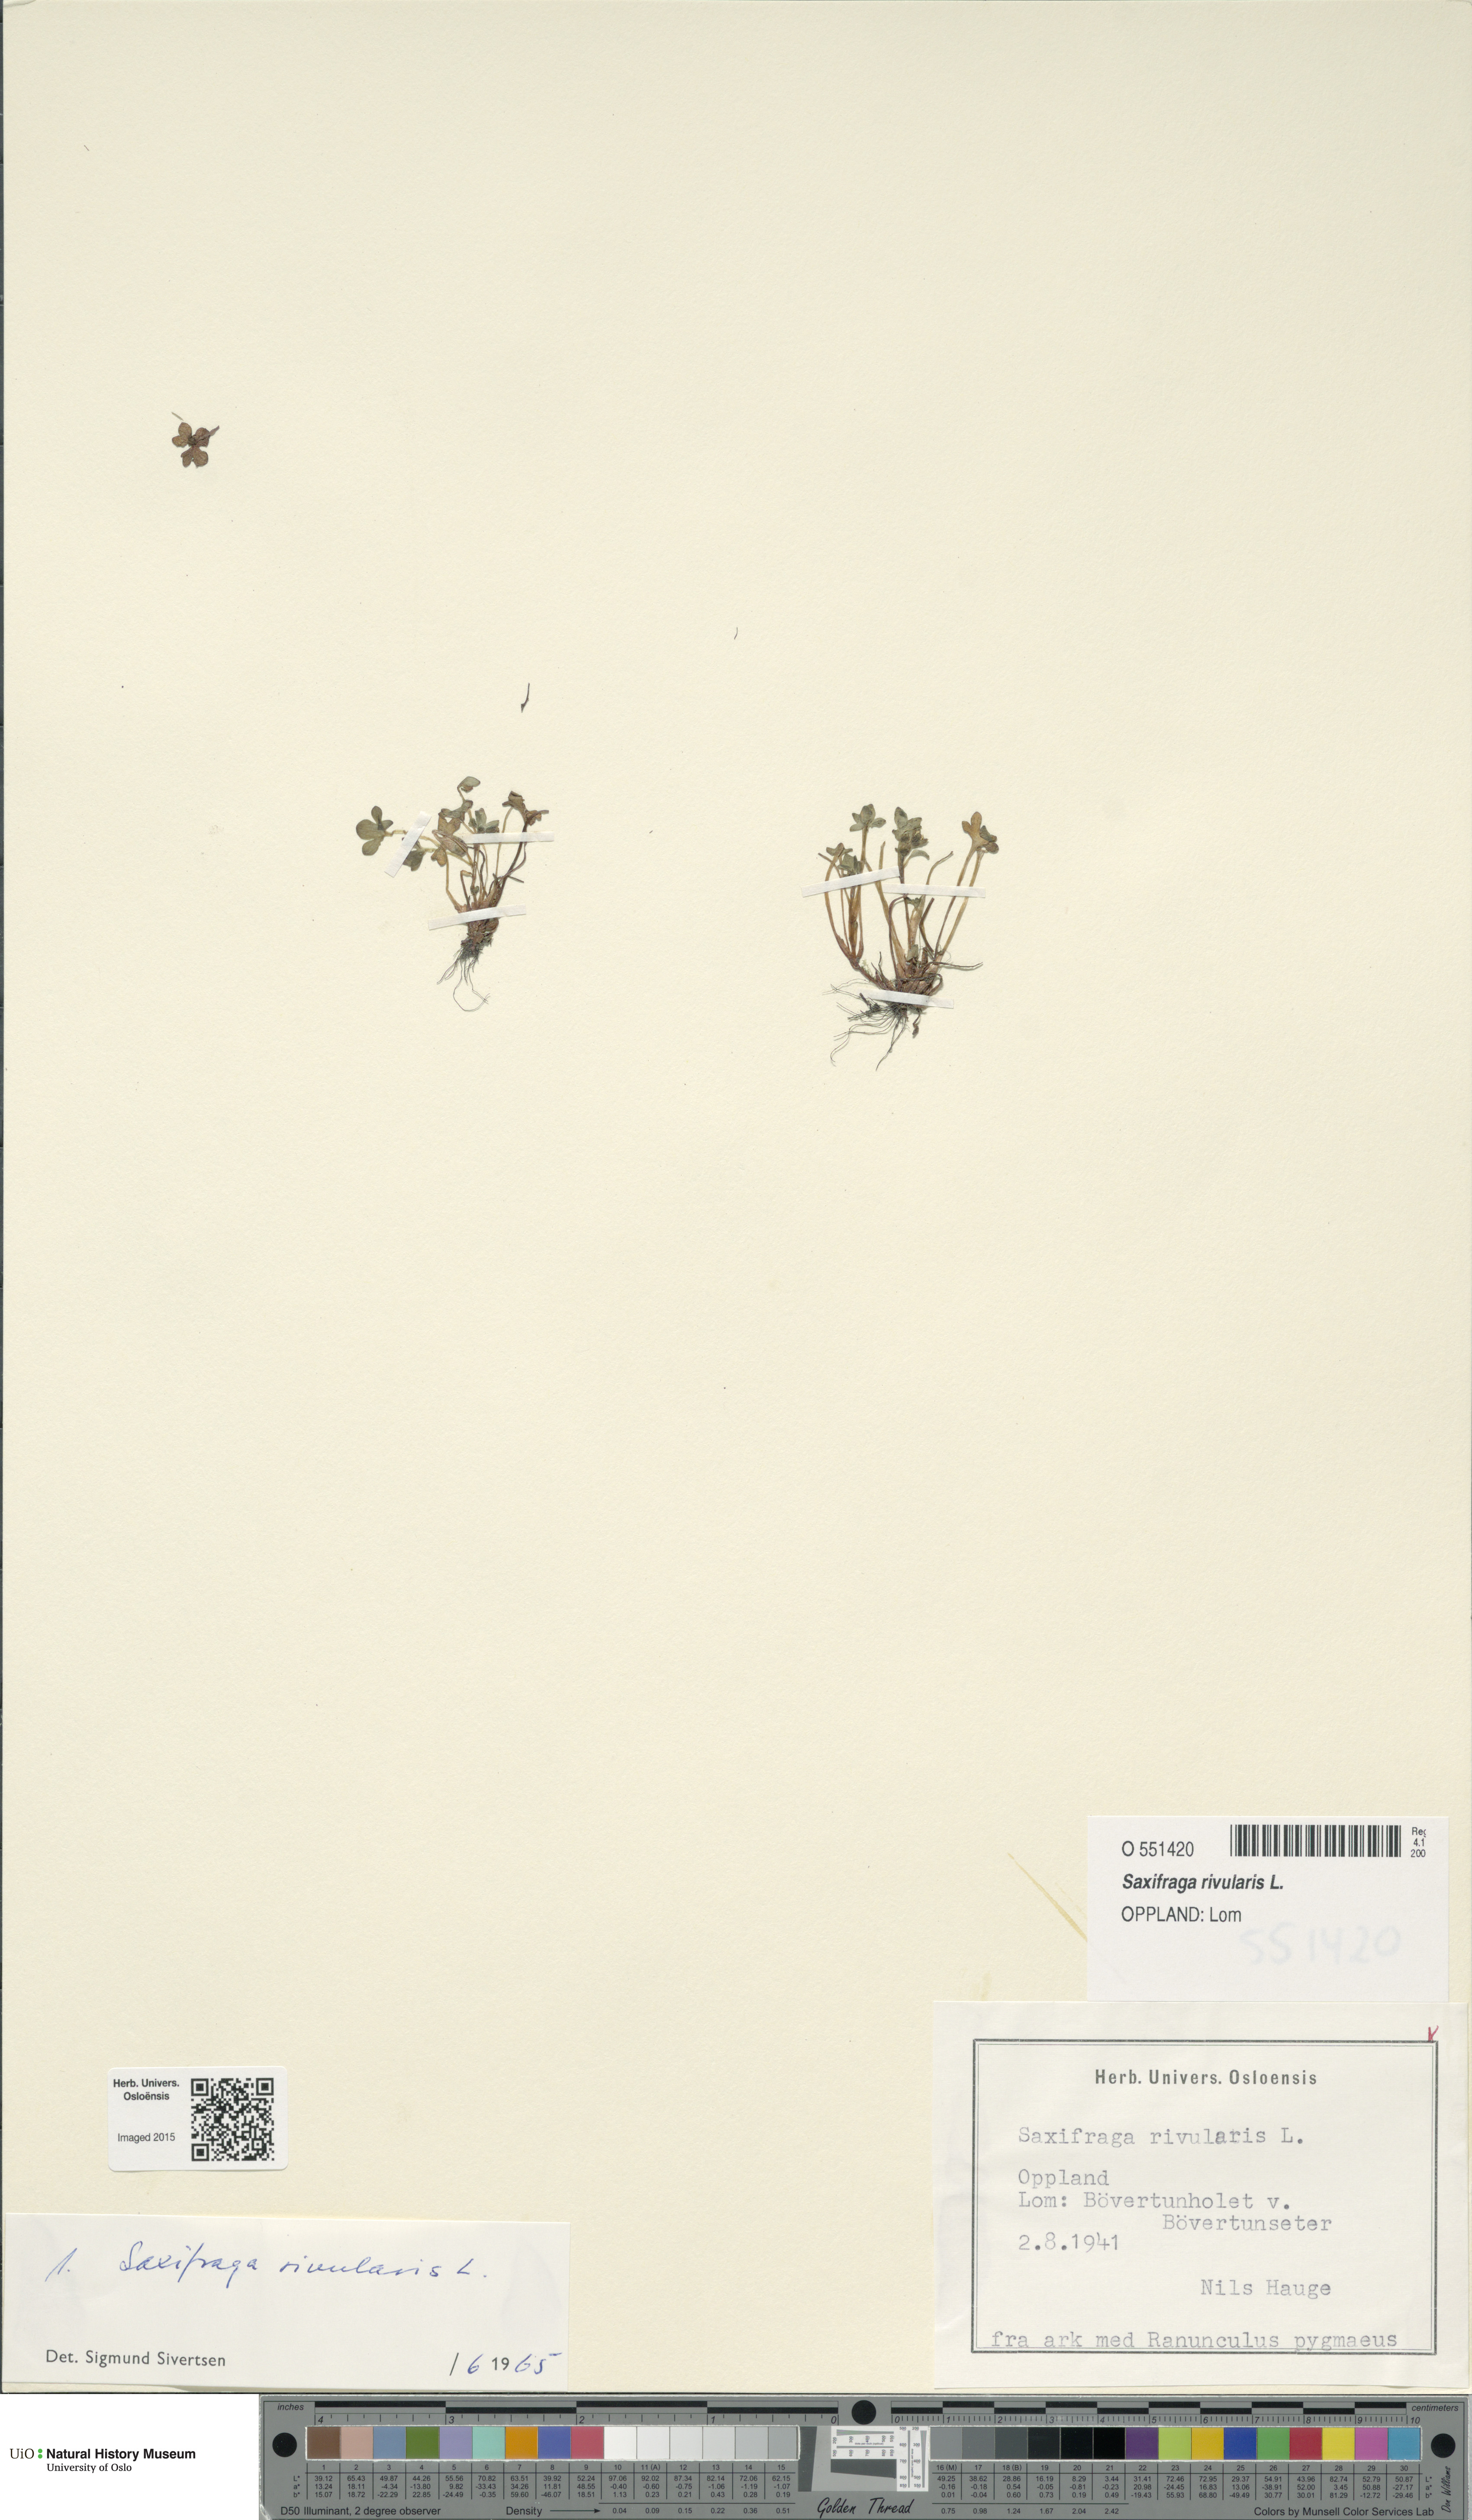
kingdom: Plantae
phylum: Tracheophyta
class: Magnoliopsida
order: Saxifragales
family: Saxifragaceae
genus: Saxifraga
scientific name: Saxifraga rivularis
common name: Highland saxifrage
